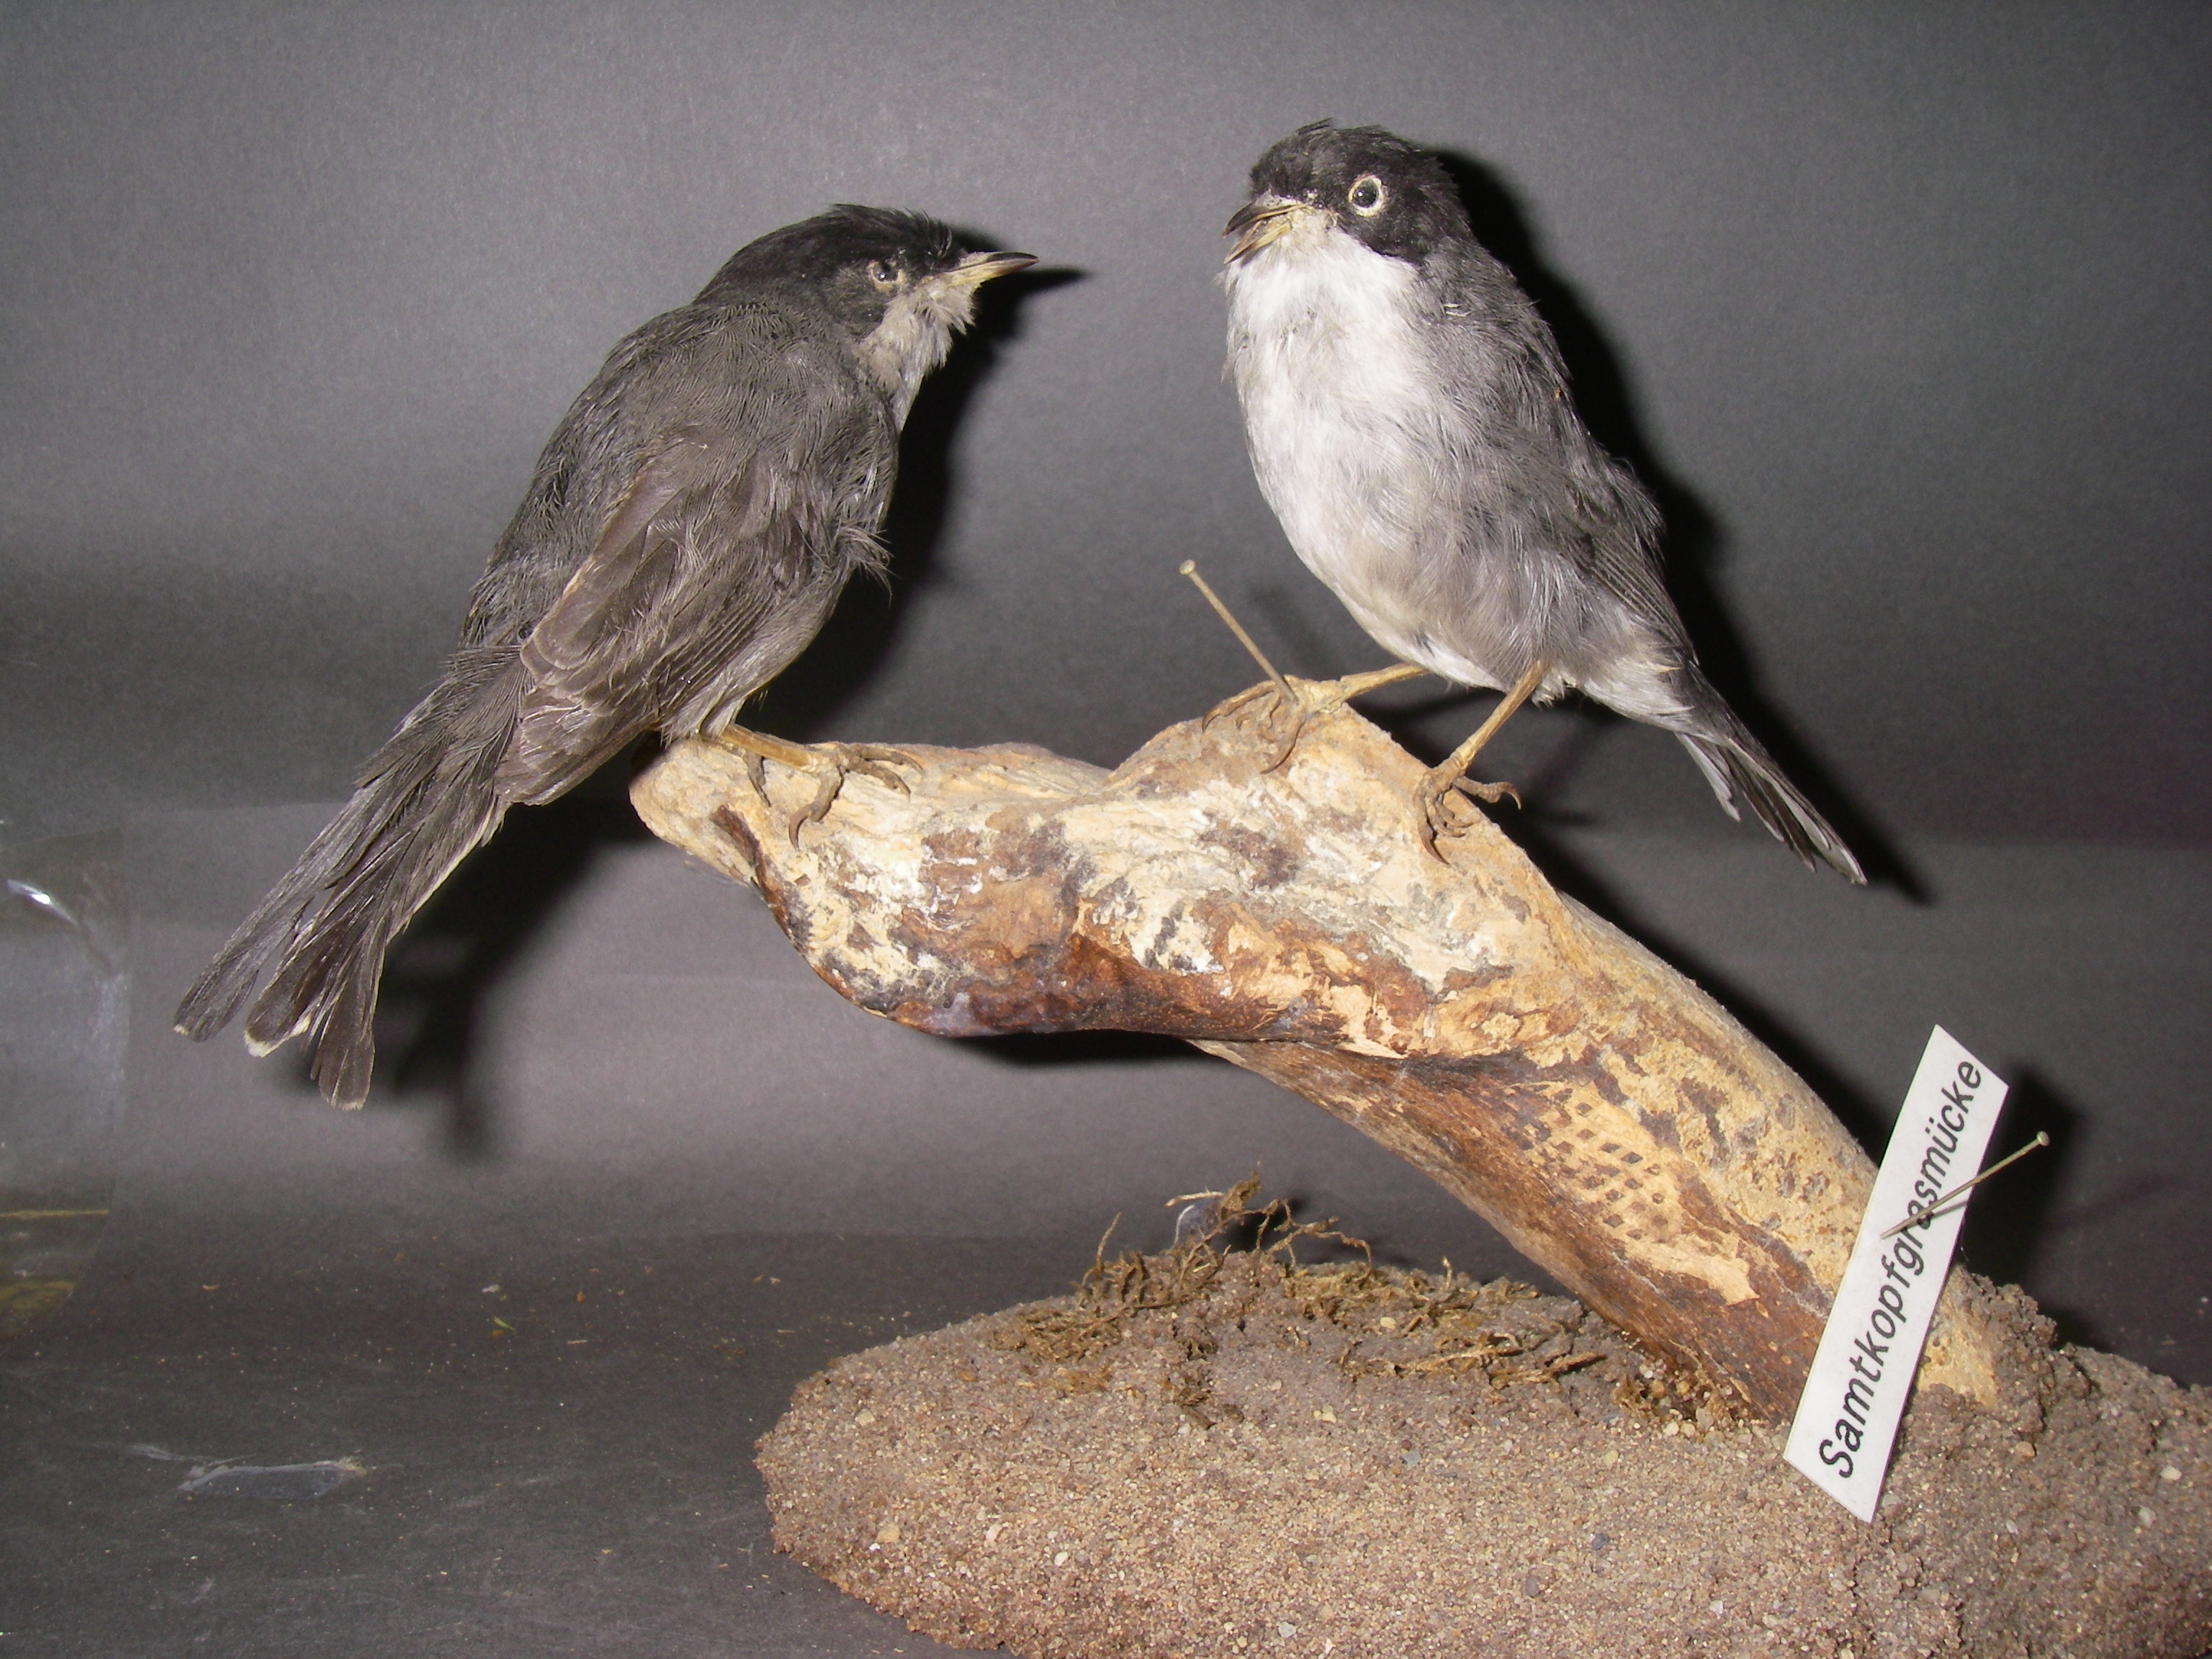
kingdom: Animalia
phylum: Chordata
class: Aves
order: Passeriformes
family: Sylviidae
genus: Sylvia
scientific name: Sylvia melanocephala
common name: Sardinian warbler
